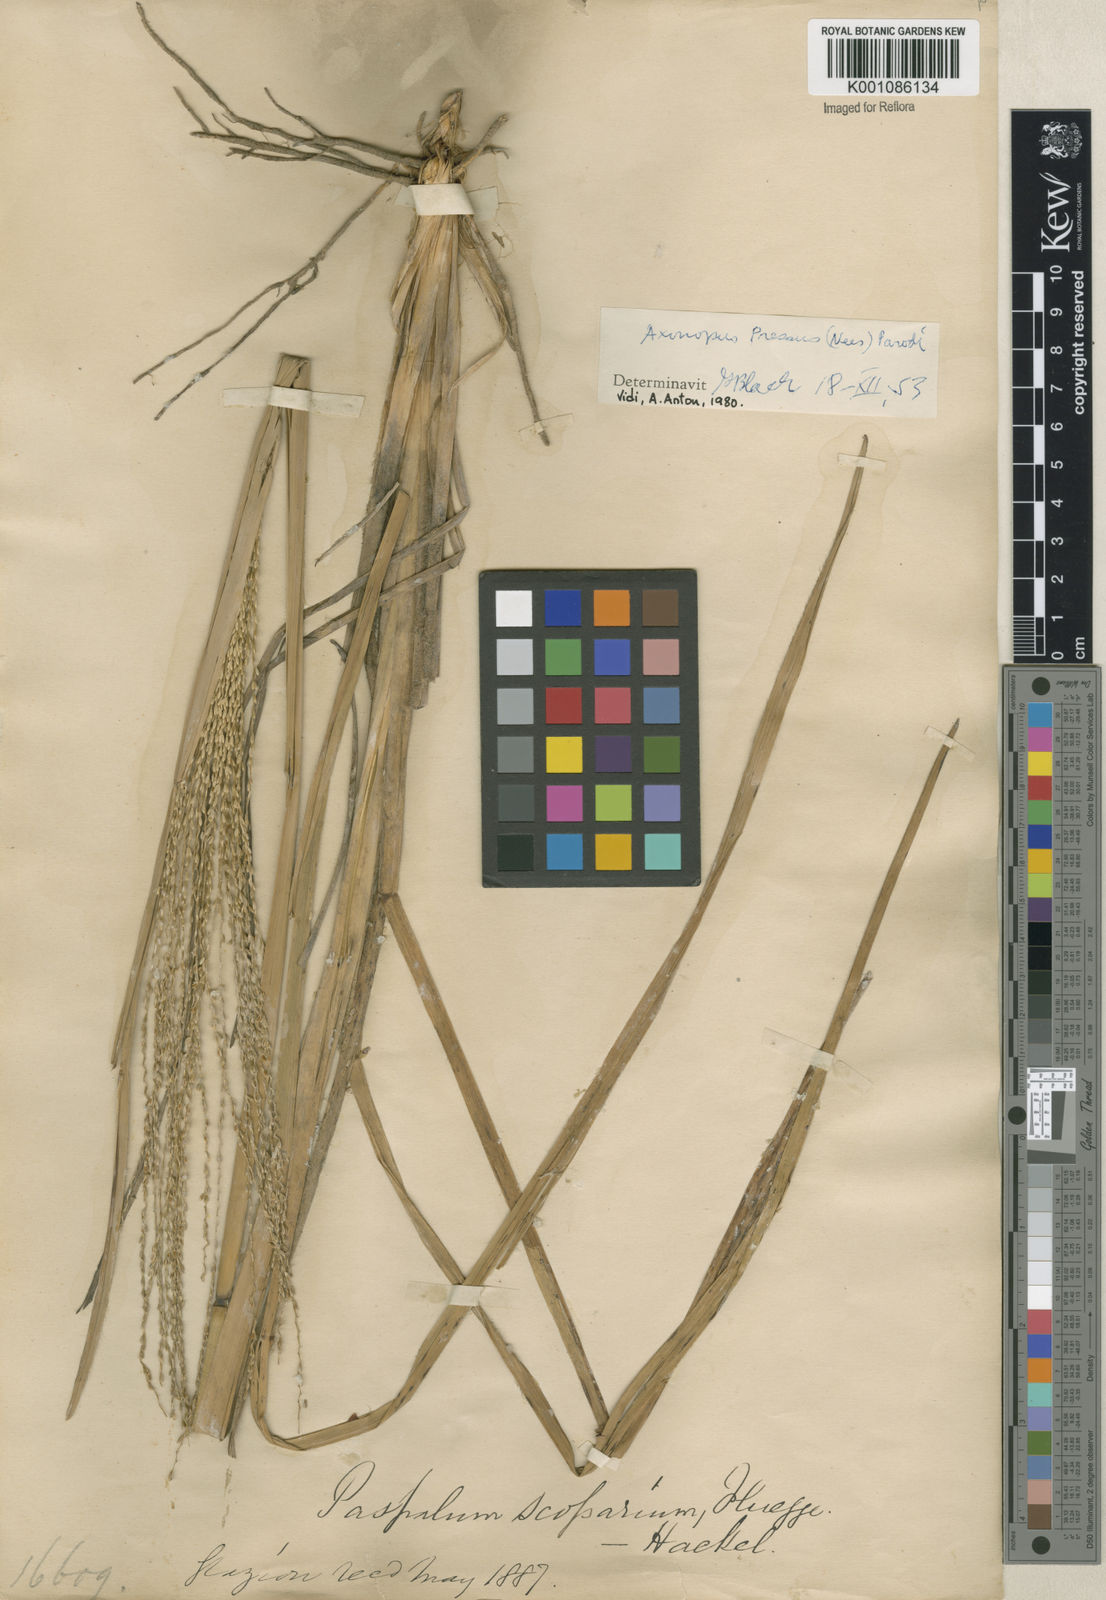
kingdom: Plantae
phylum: Tracheophyta
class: Liliopsida
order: Poales
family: Poaceae
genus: Axonopus
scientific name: Axonopus pressus
